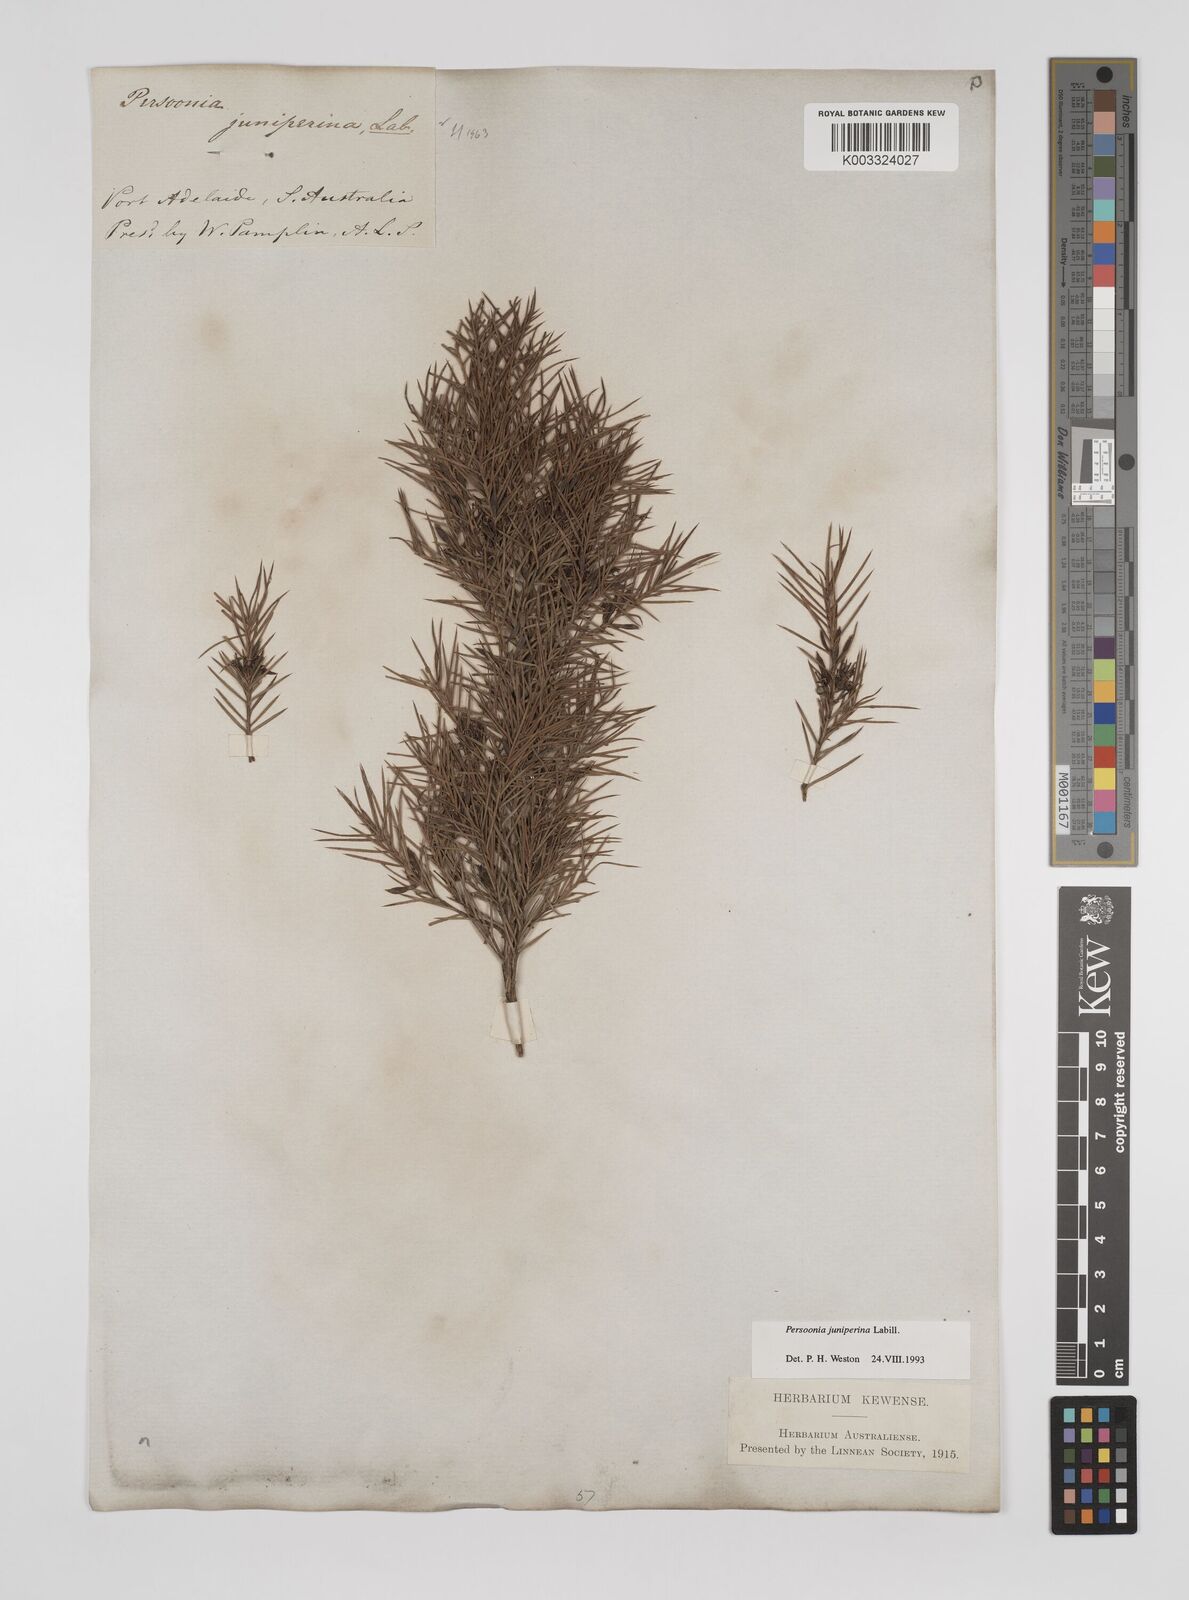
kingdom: Plantae
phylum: Tracheophyta
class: Magnoliopsida
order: Proteales
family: Proteaceae
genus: Persoonia
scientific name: Persoonia juniperina
